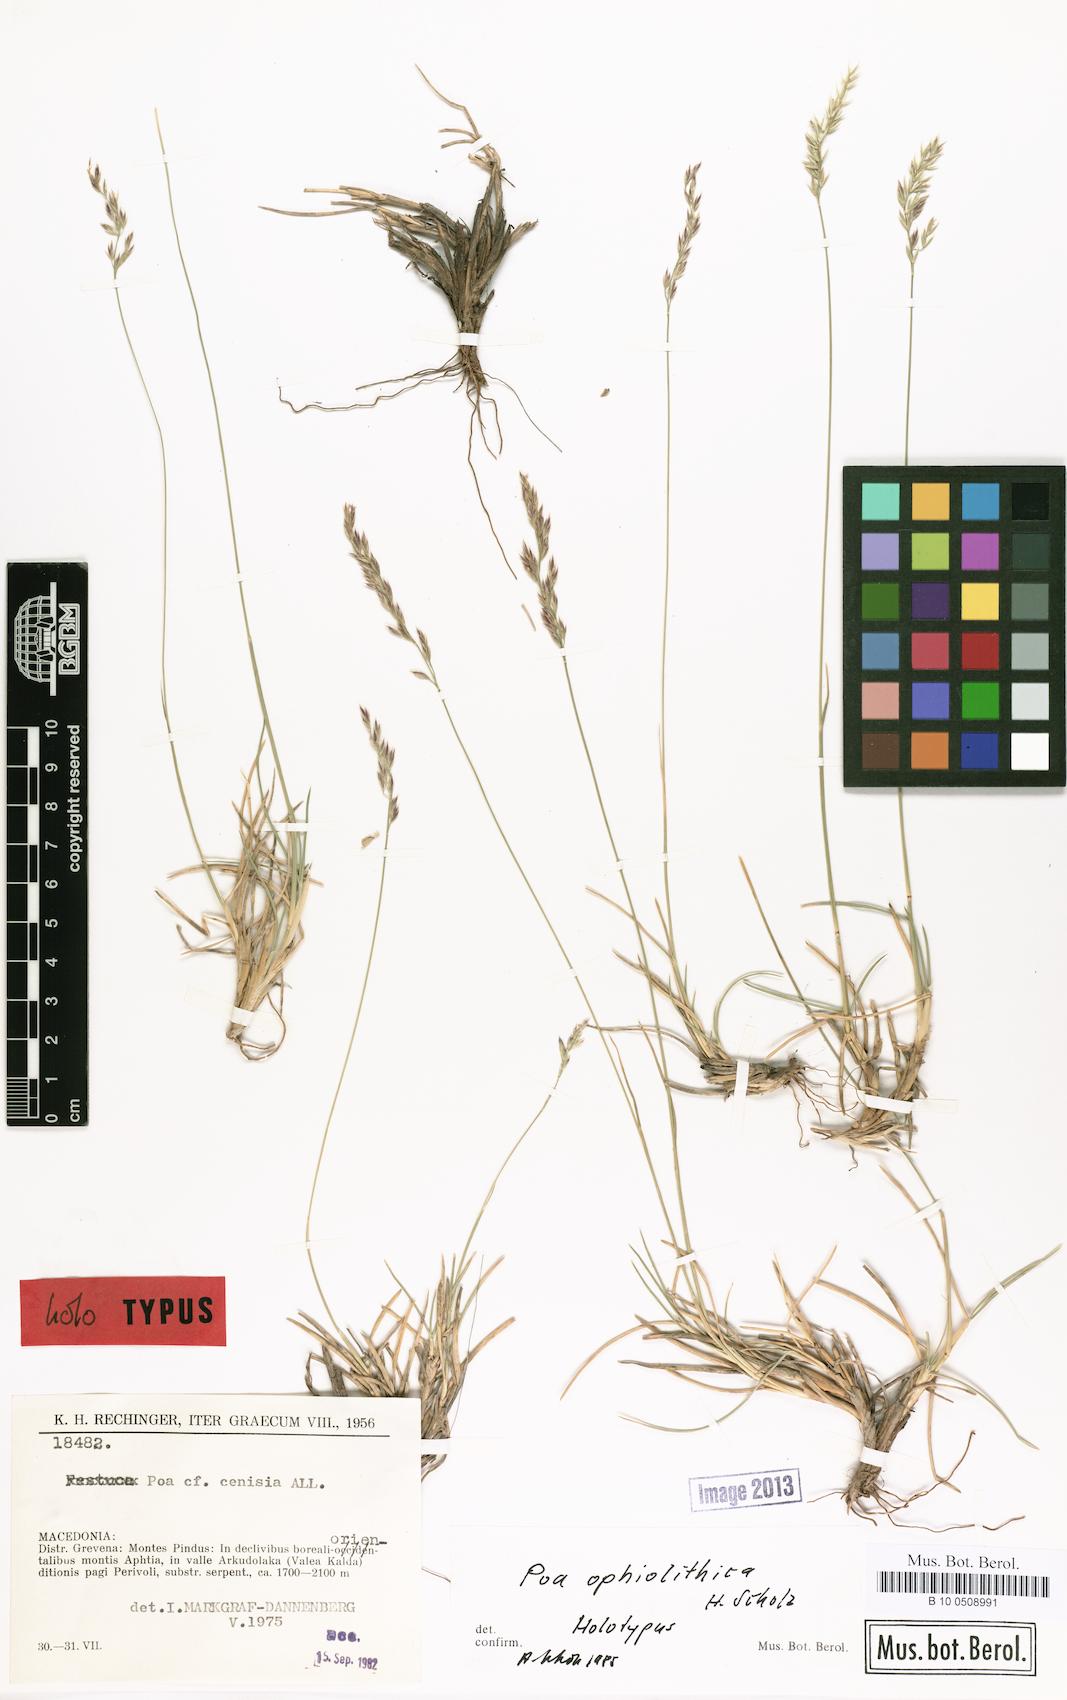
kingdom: Plantae
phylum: Tracheophyta
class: Liliopsida
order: Poales
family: Poaceae
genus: Poa
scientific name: Poa cenisia
